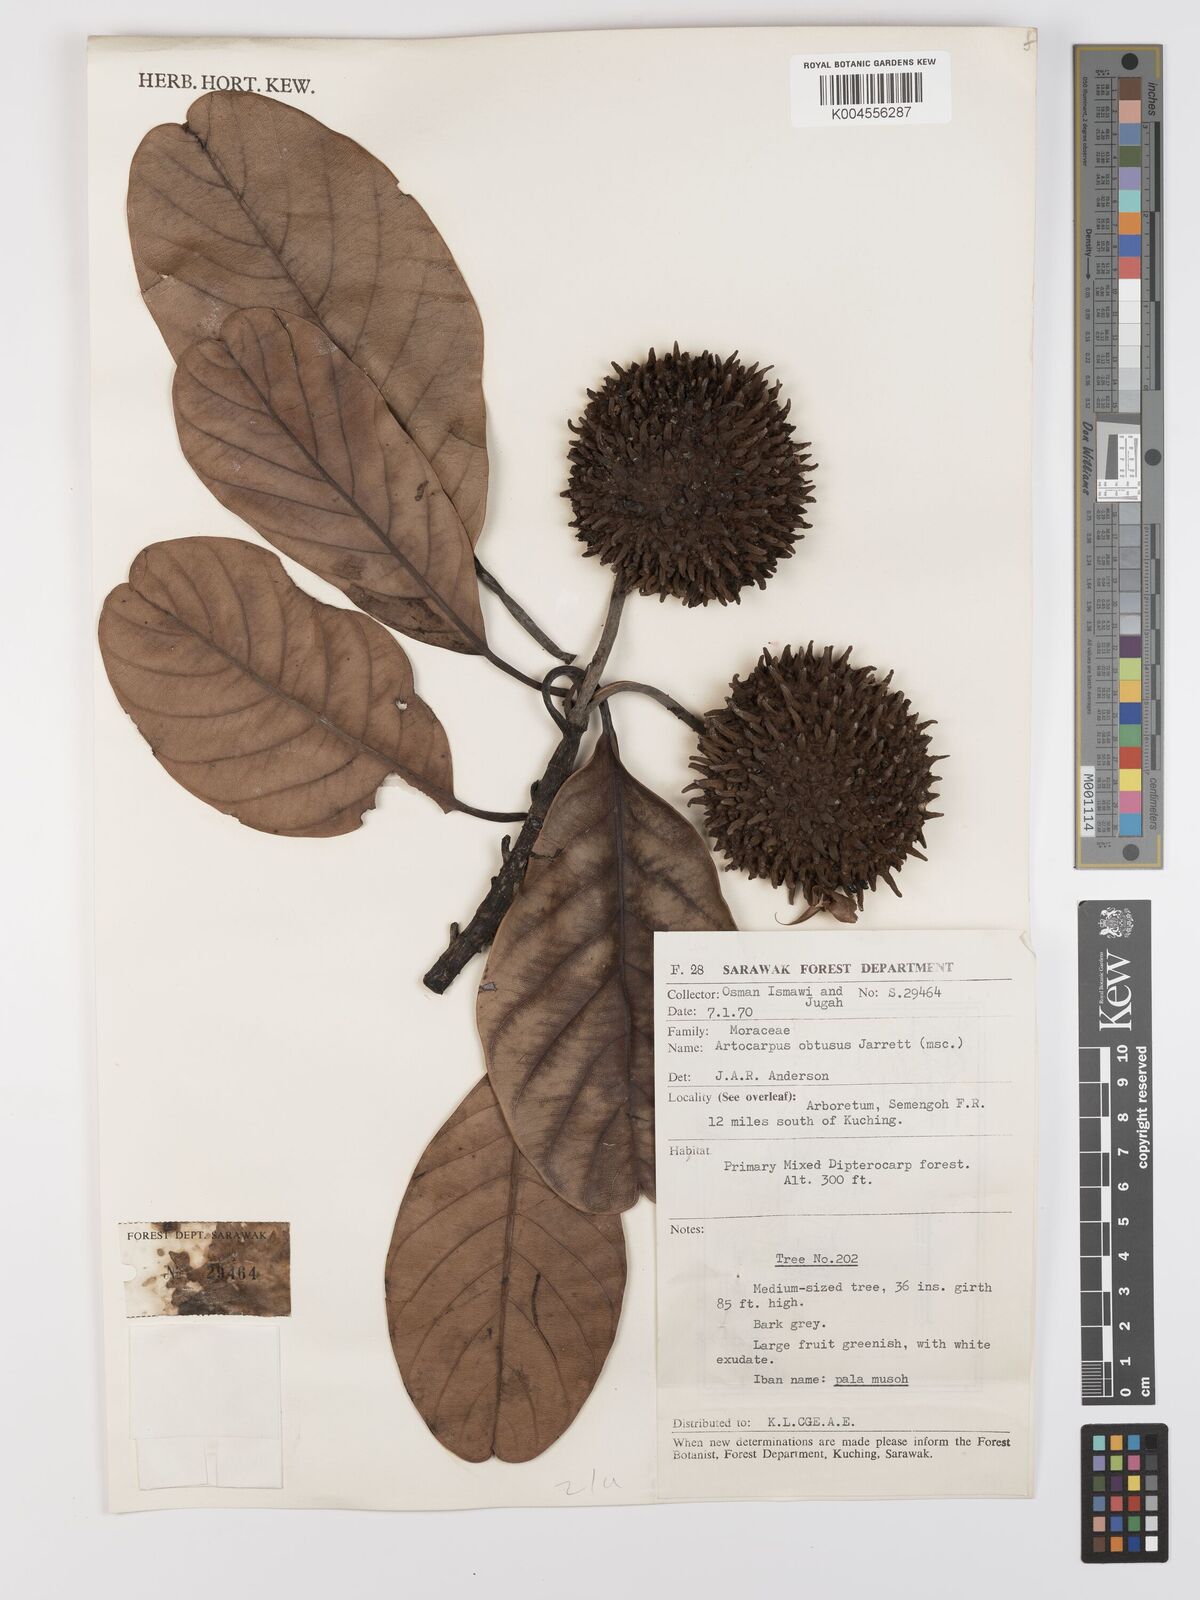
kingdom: Plantae
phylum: Tracheophyta
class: Magnoliopsida
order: Rosales
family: Moraceae
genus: Artocarpus
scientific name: Artocarpus obtusus
